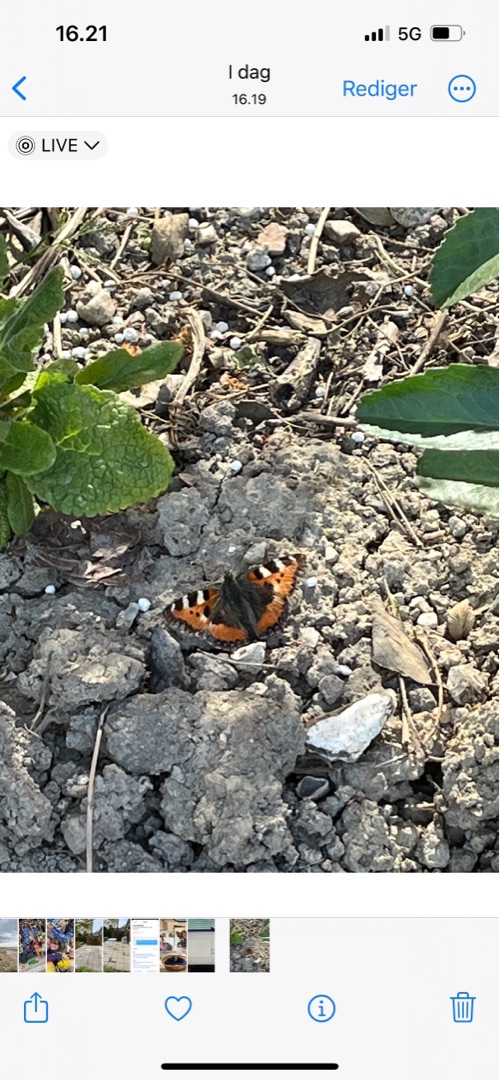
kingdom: Animalia
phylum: Arthropoda
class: Insecta
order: Lepidoptera
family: Nymphalidae
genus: Aglais
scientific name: Aglais urticae
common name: Nældens takvinge
